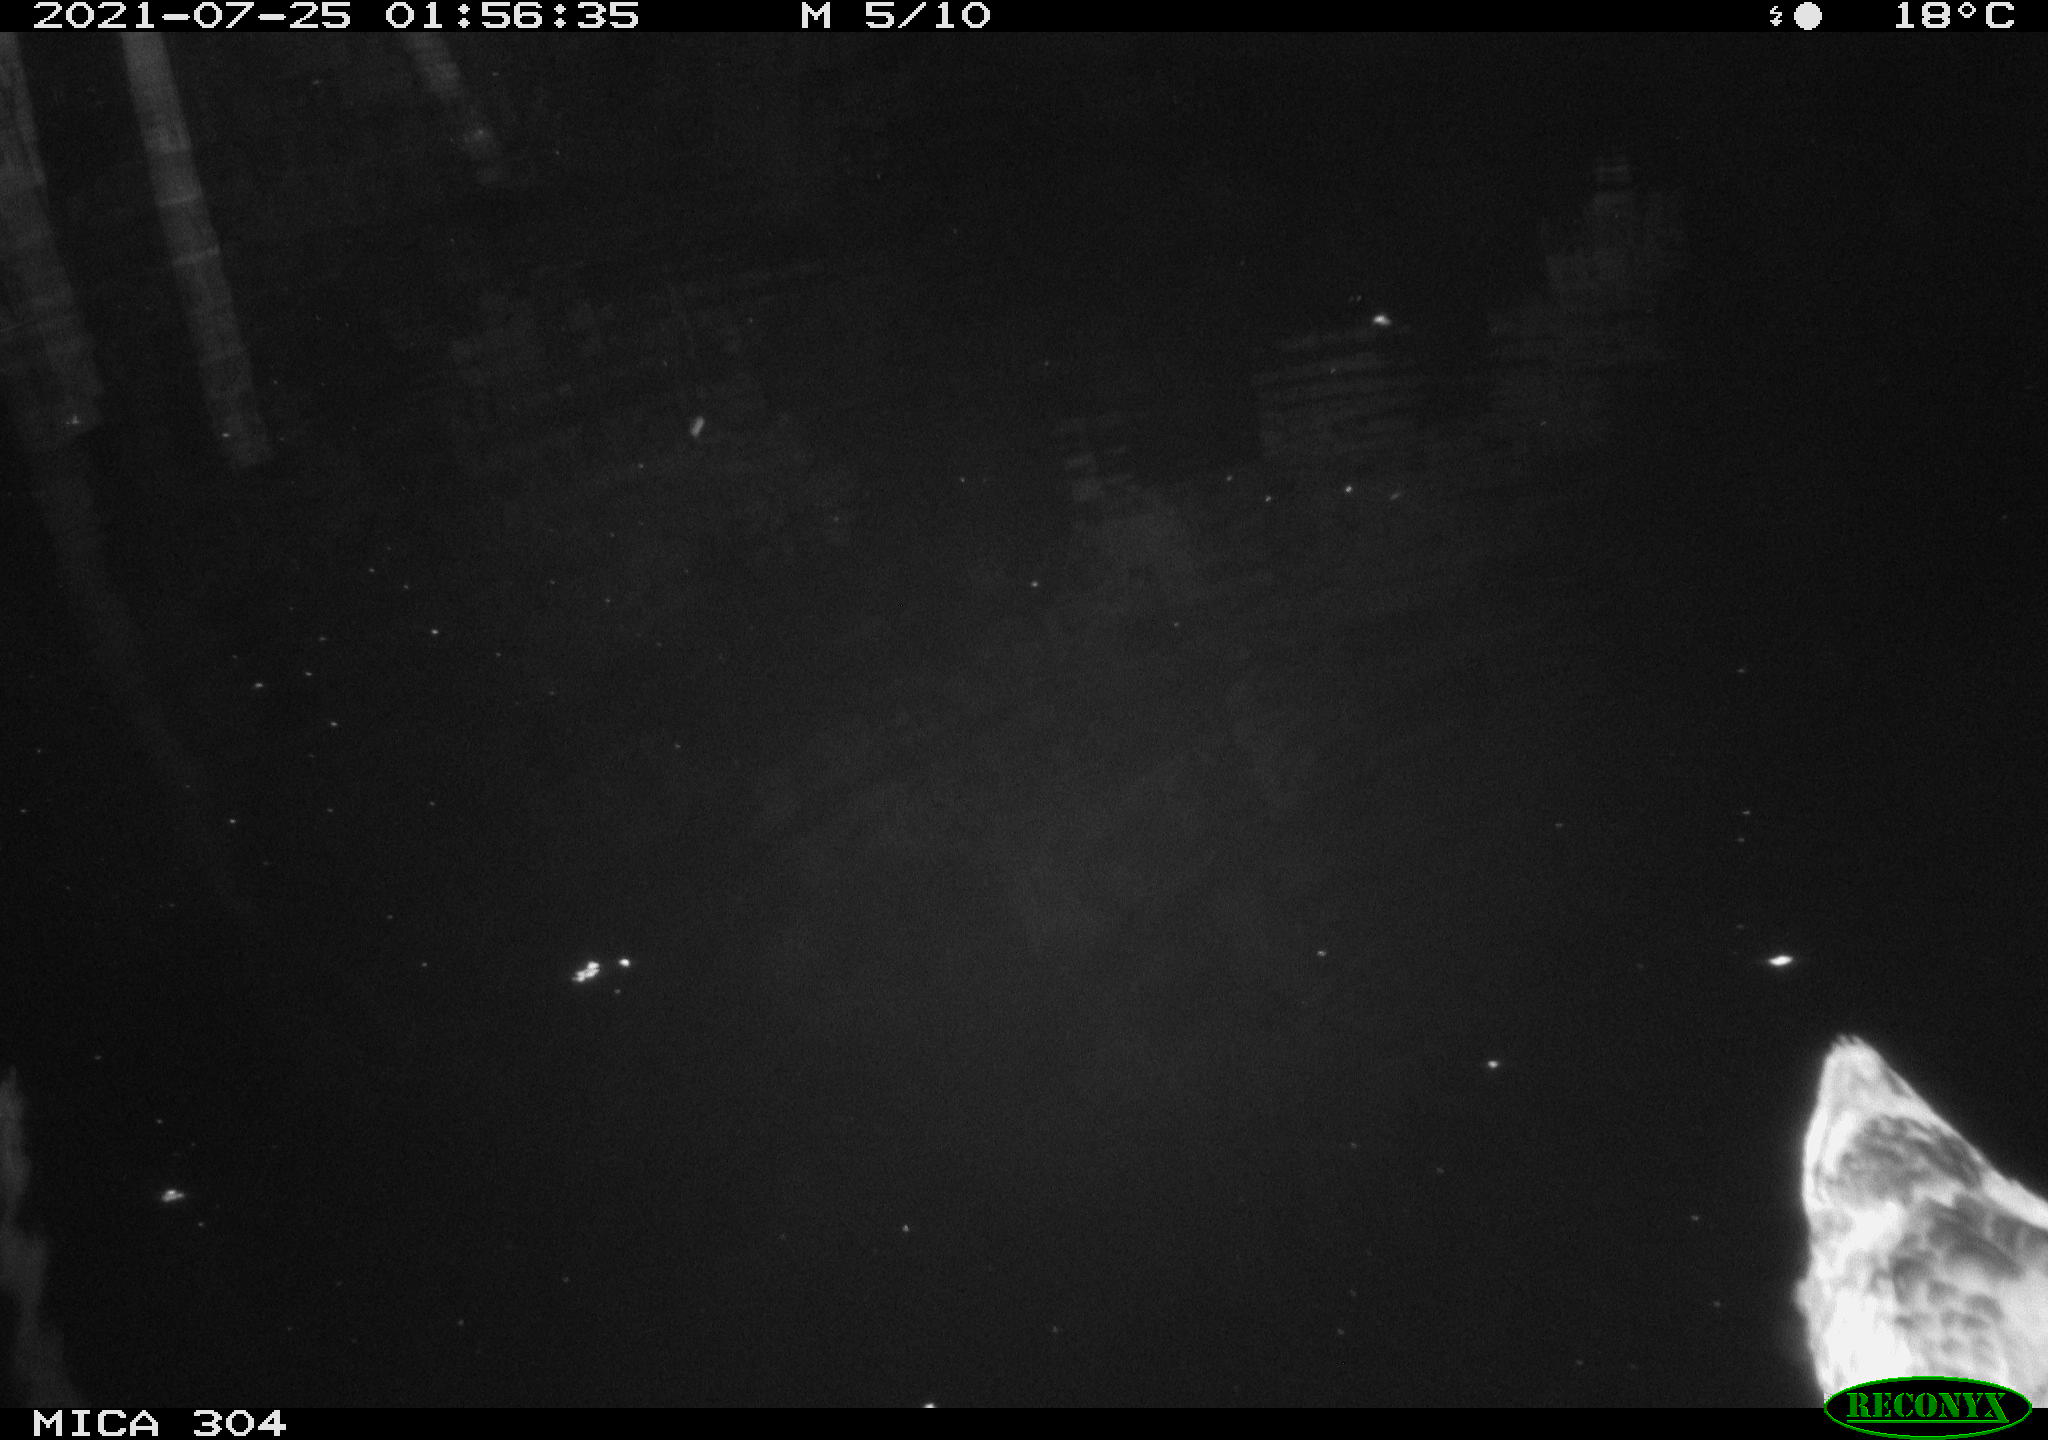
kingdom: Animalia
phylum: Chordata
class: Aves
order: Anseriformes
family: Anatidae
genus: Mareca
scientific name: Mareca strepera
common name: Gadwall
